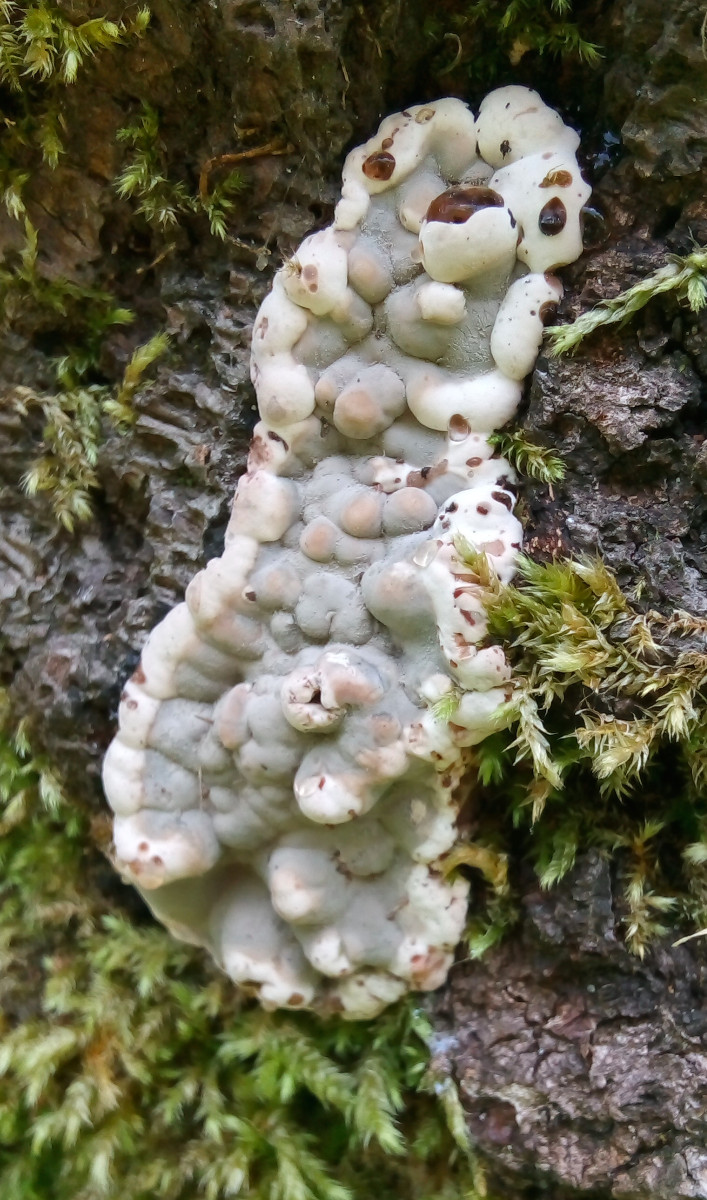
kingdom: Fungi
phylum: Ascomycota
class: Sordariomycetes
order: Xylariales
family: Xylariaceae
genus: Kretzschmaria
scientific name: Kretzschmaria deusta
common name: stor kulsvamp
